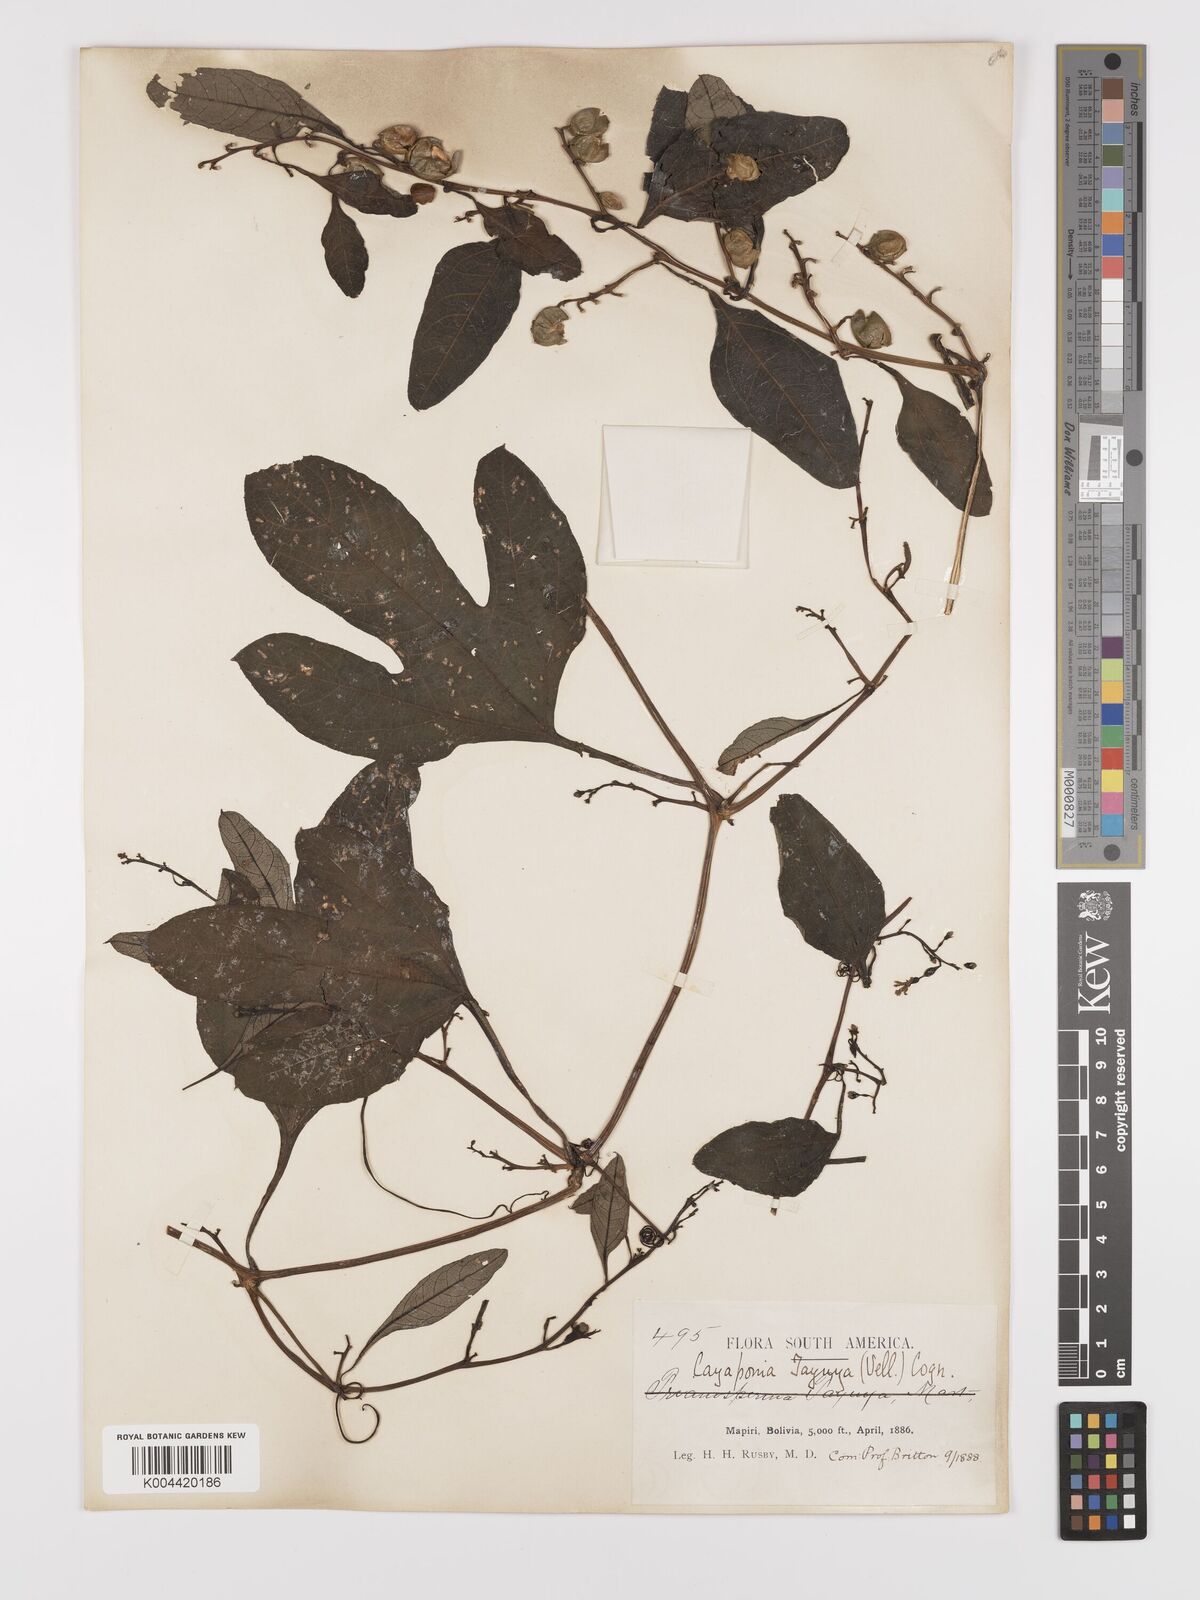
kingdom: Plantae
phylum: Tracheophyta
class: Magnoliopsida
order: Cucurbitales
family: Cucurbitaceae
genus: Cayaponia
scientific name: Cayaponia tayuya
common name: Tayuya
